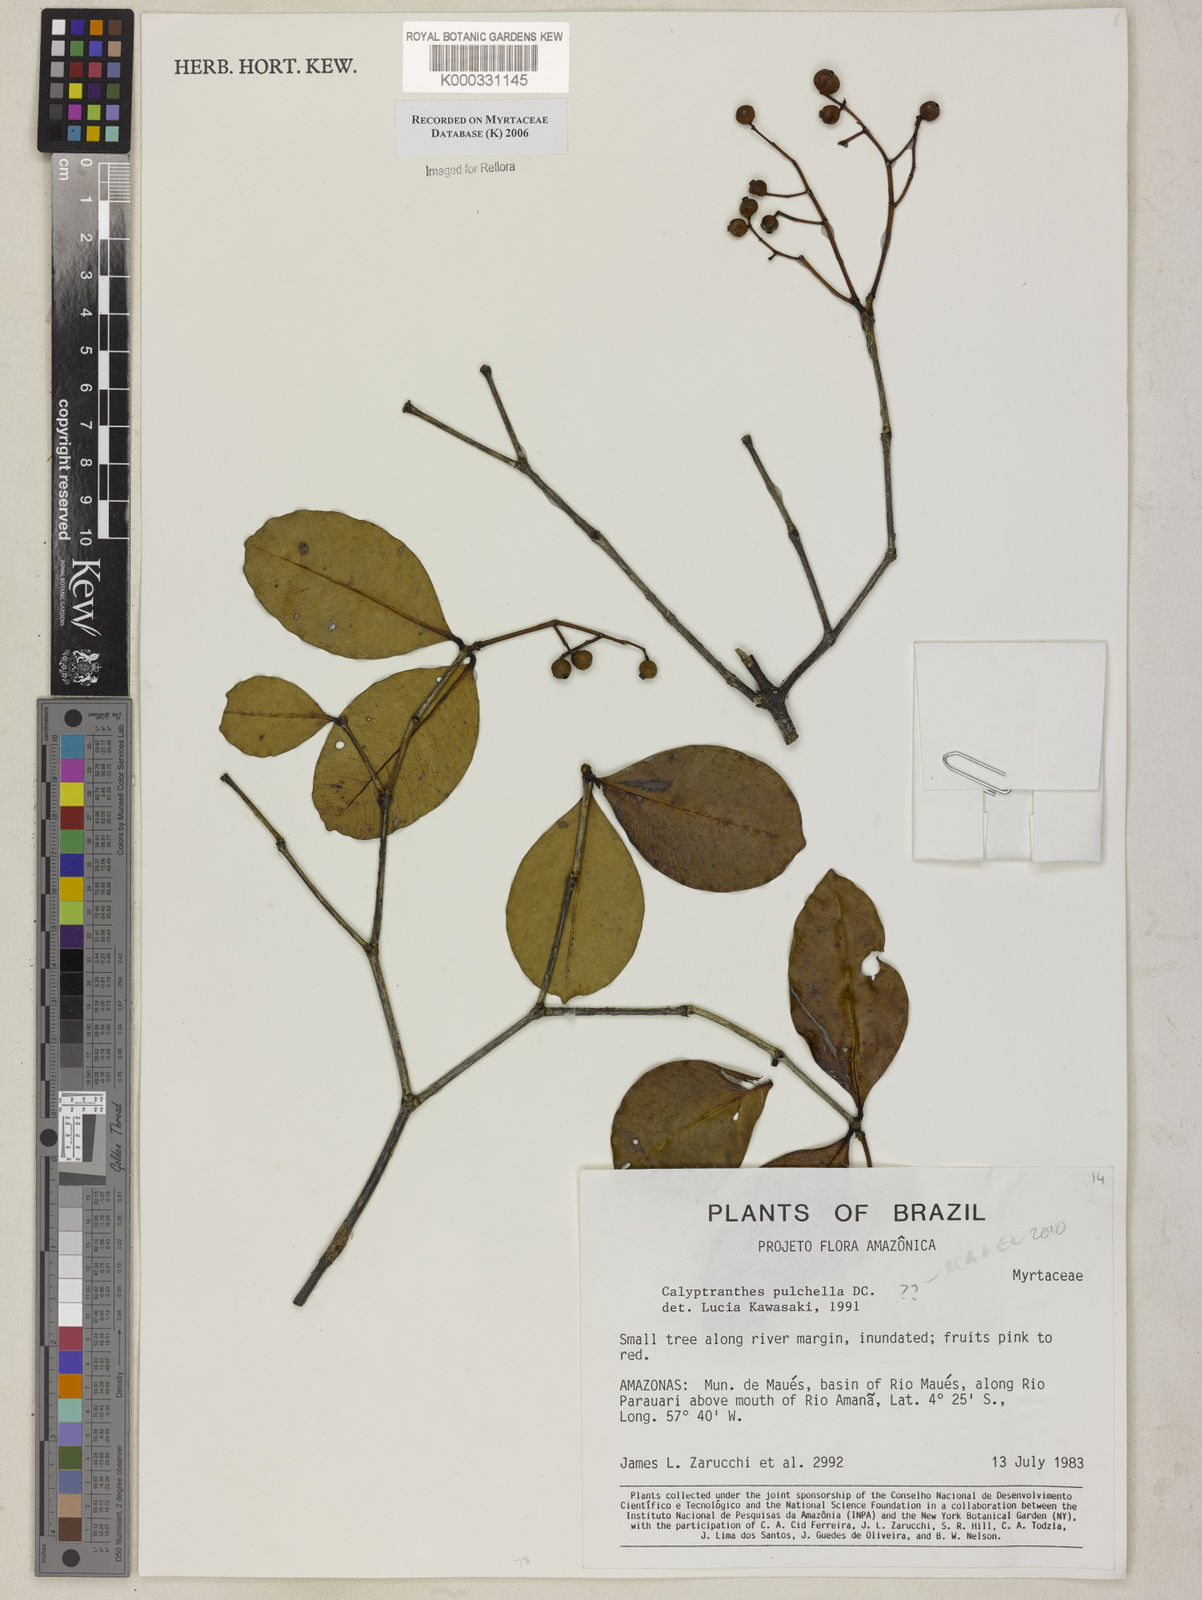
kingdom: Plantae
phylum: Tracheophyta
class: Magnoliopsida
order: Myrtales
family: Myrtaceae
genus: Myrcia
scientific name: Myrcia pulchella
